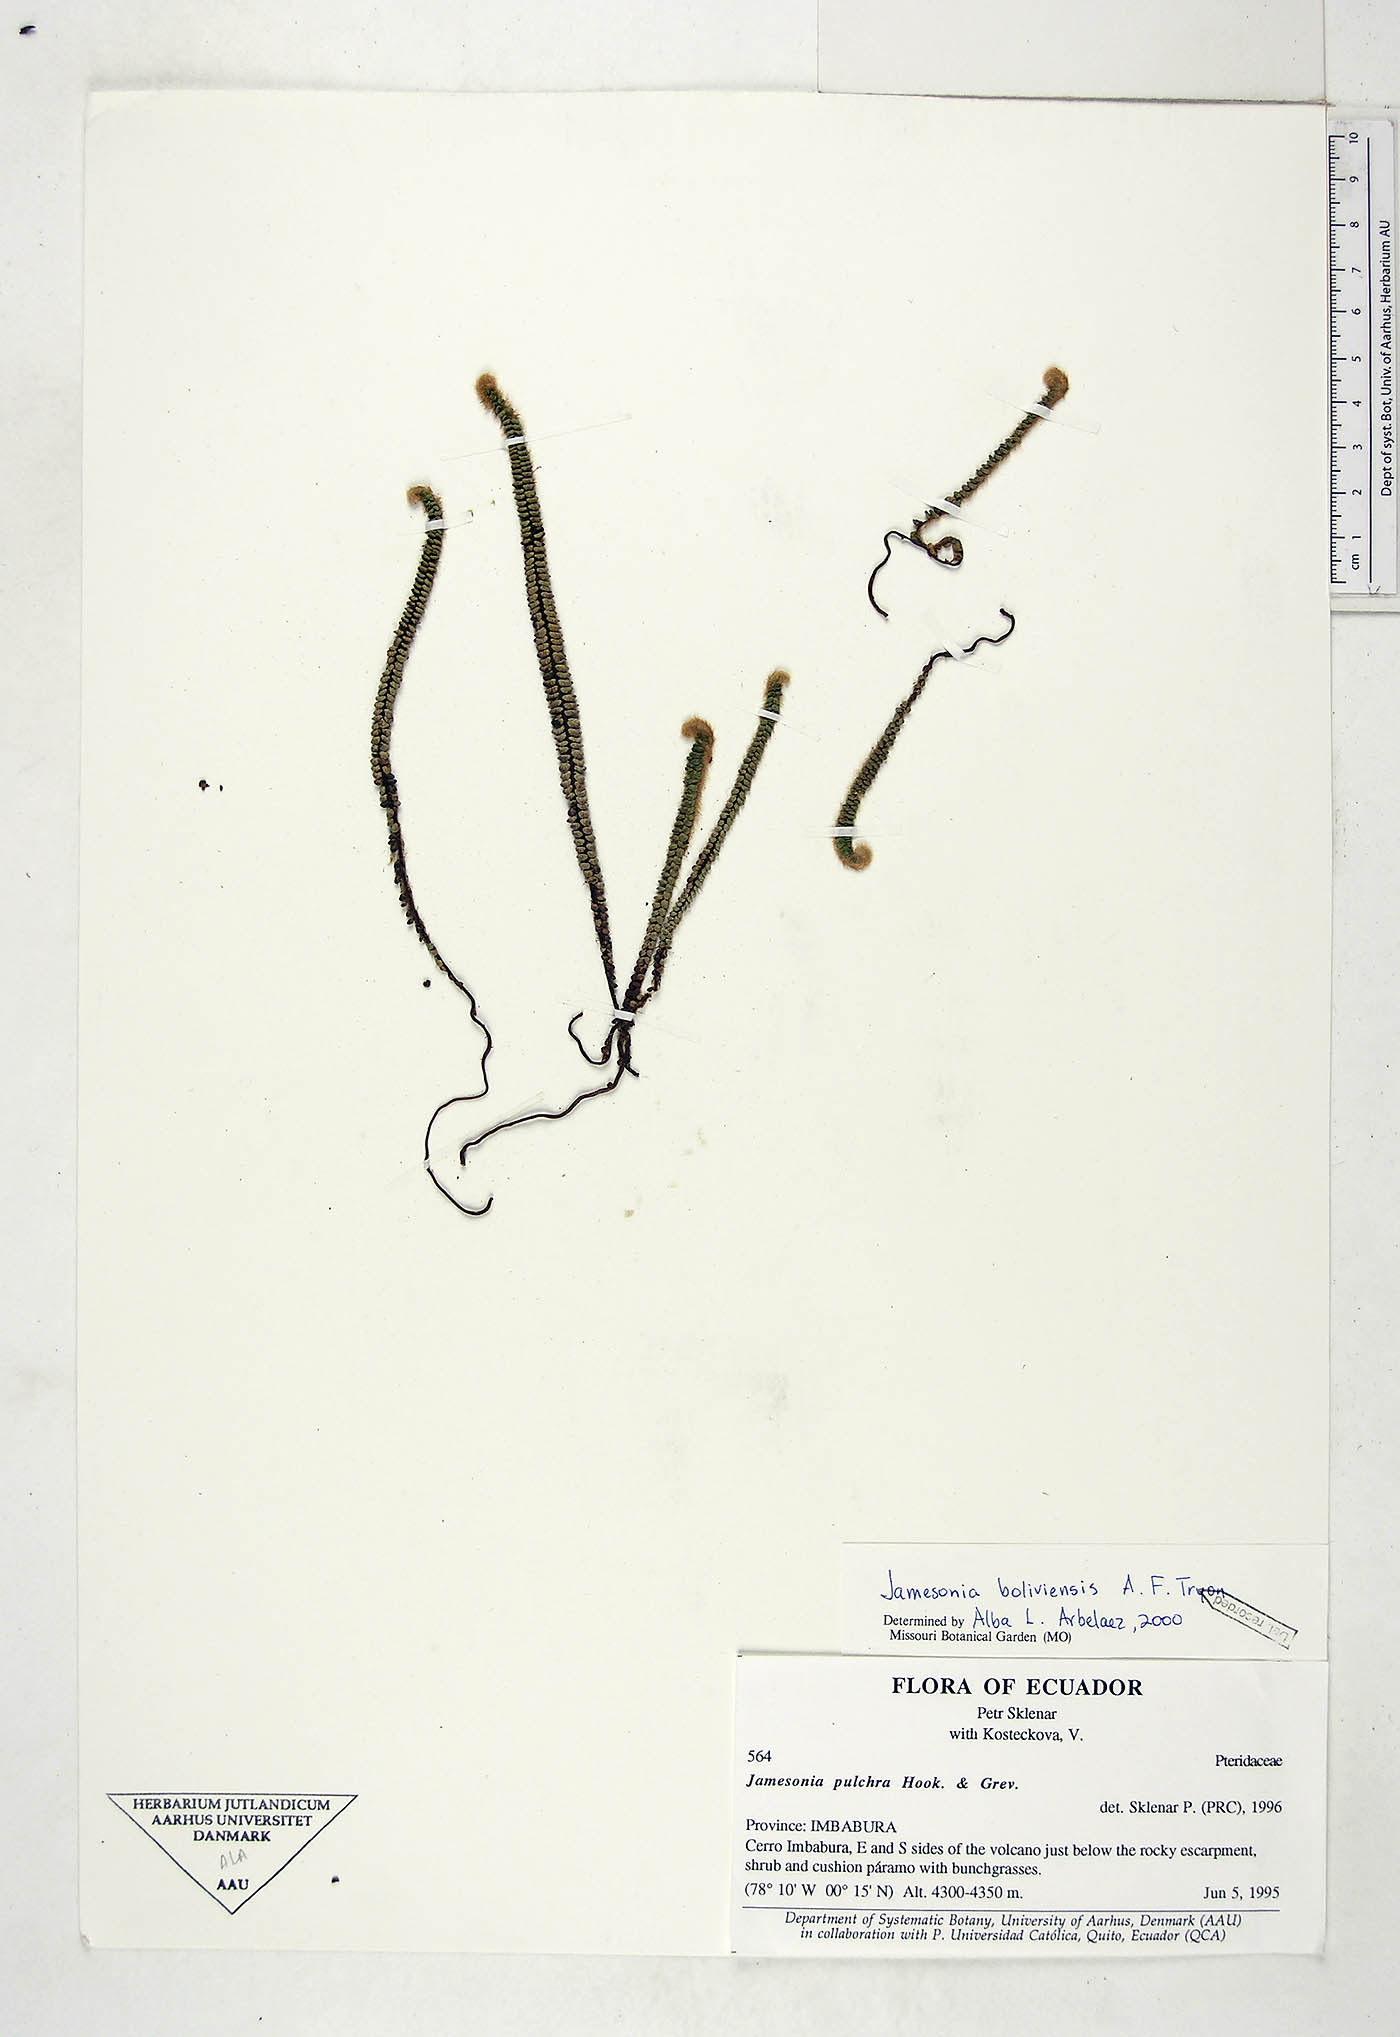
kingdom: Plantae
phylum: Tracheophyta
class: Polypodiopsida
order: Polypodiales
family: Pteridaceae
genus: Jamesonia
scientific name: Jamesonia boliviensis
